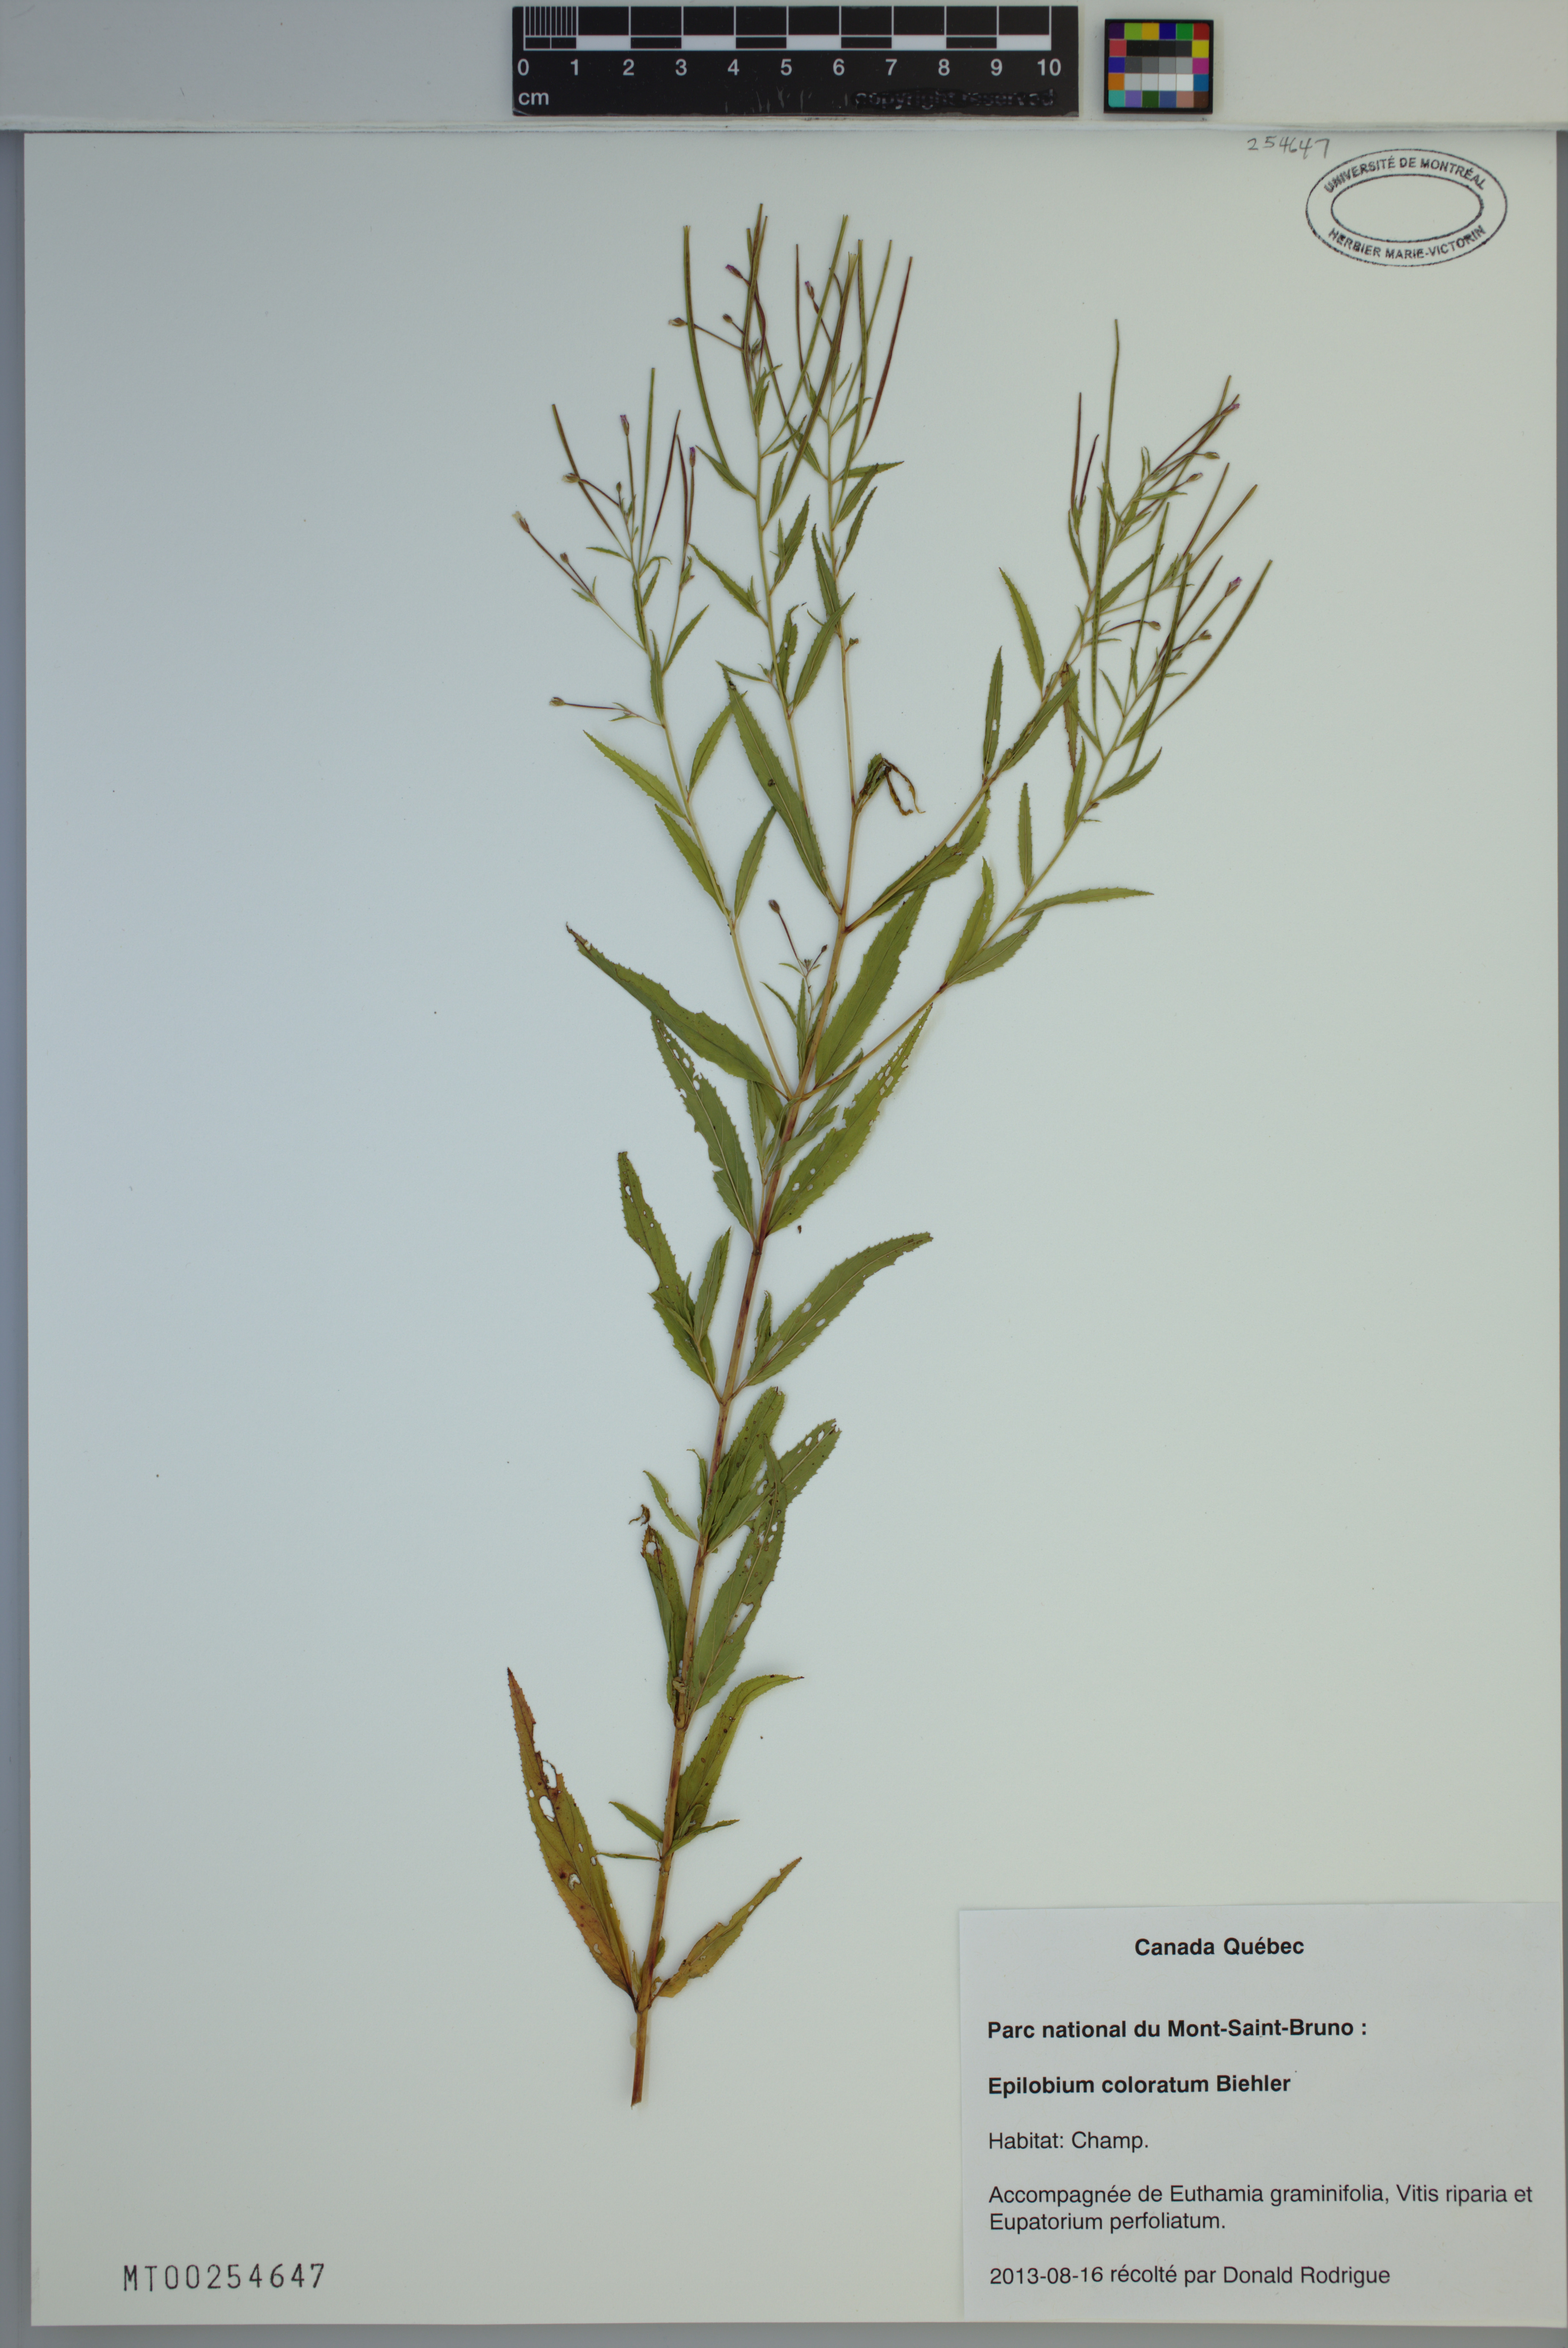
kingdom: Plantae
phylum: Tracheophyta
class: Magnoliopsida
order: Myrtales
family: Onagraceae
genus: Epilobium
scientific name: Epilobium coloratum
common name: Bronze willowherb
